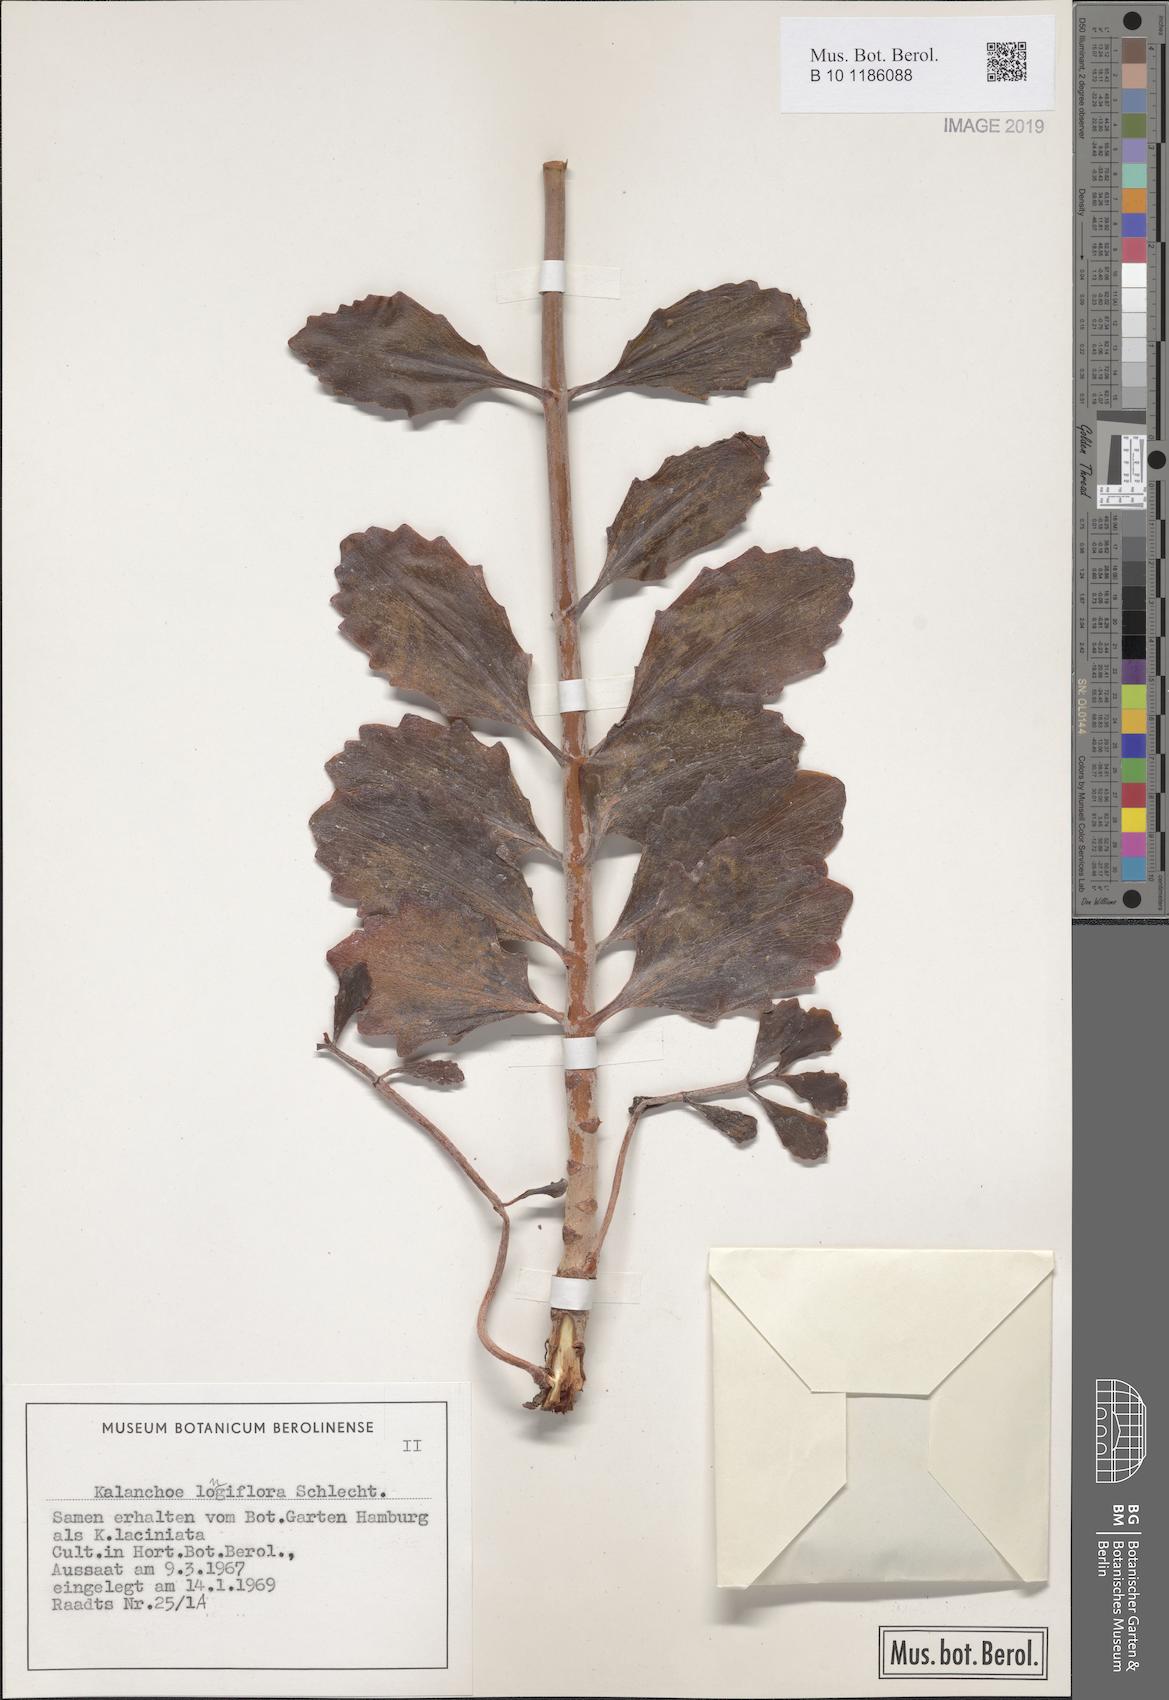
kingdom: Plantae
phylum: Tracheophyta
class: Magnoliopsida
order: Saxifragales
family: Crassulaceae
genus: Kalanchoe
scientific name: Kalanchoe longiflora
